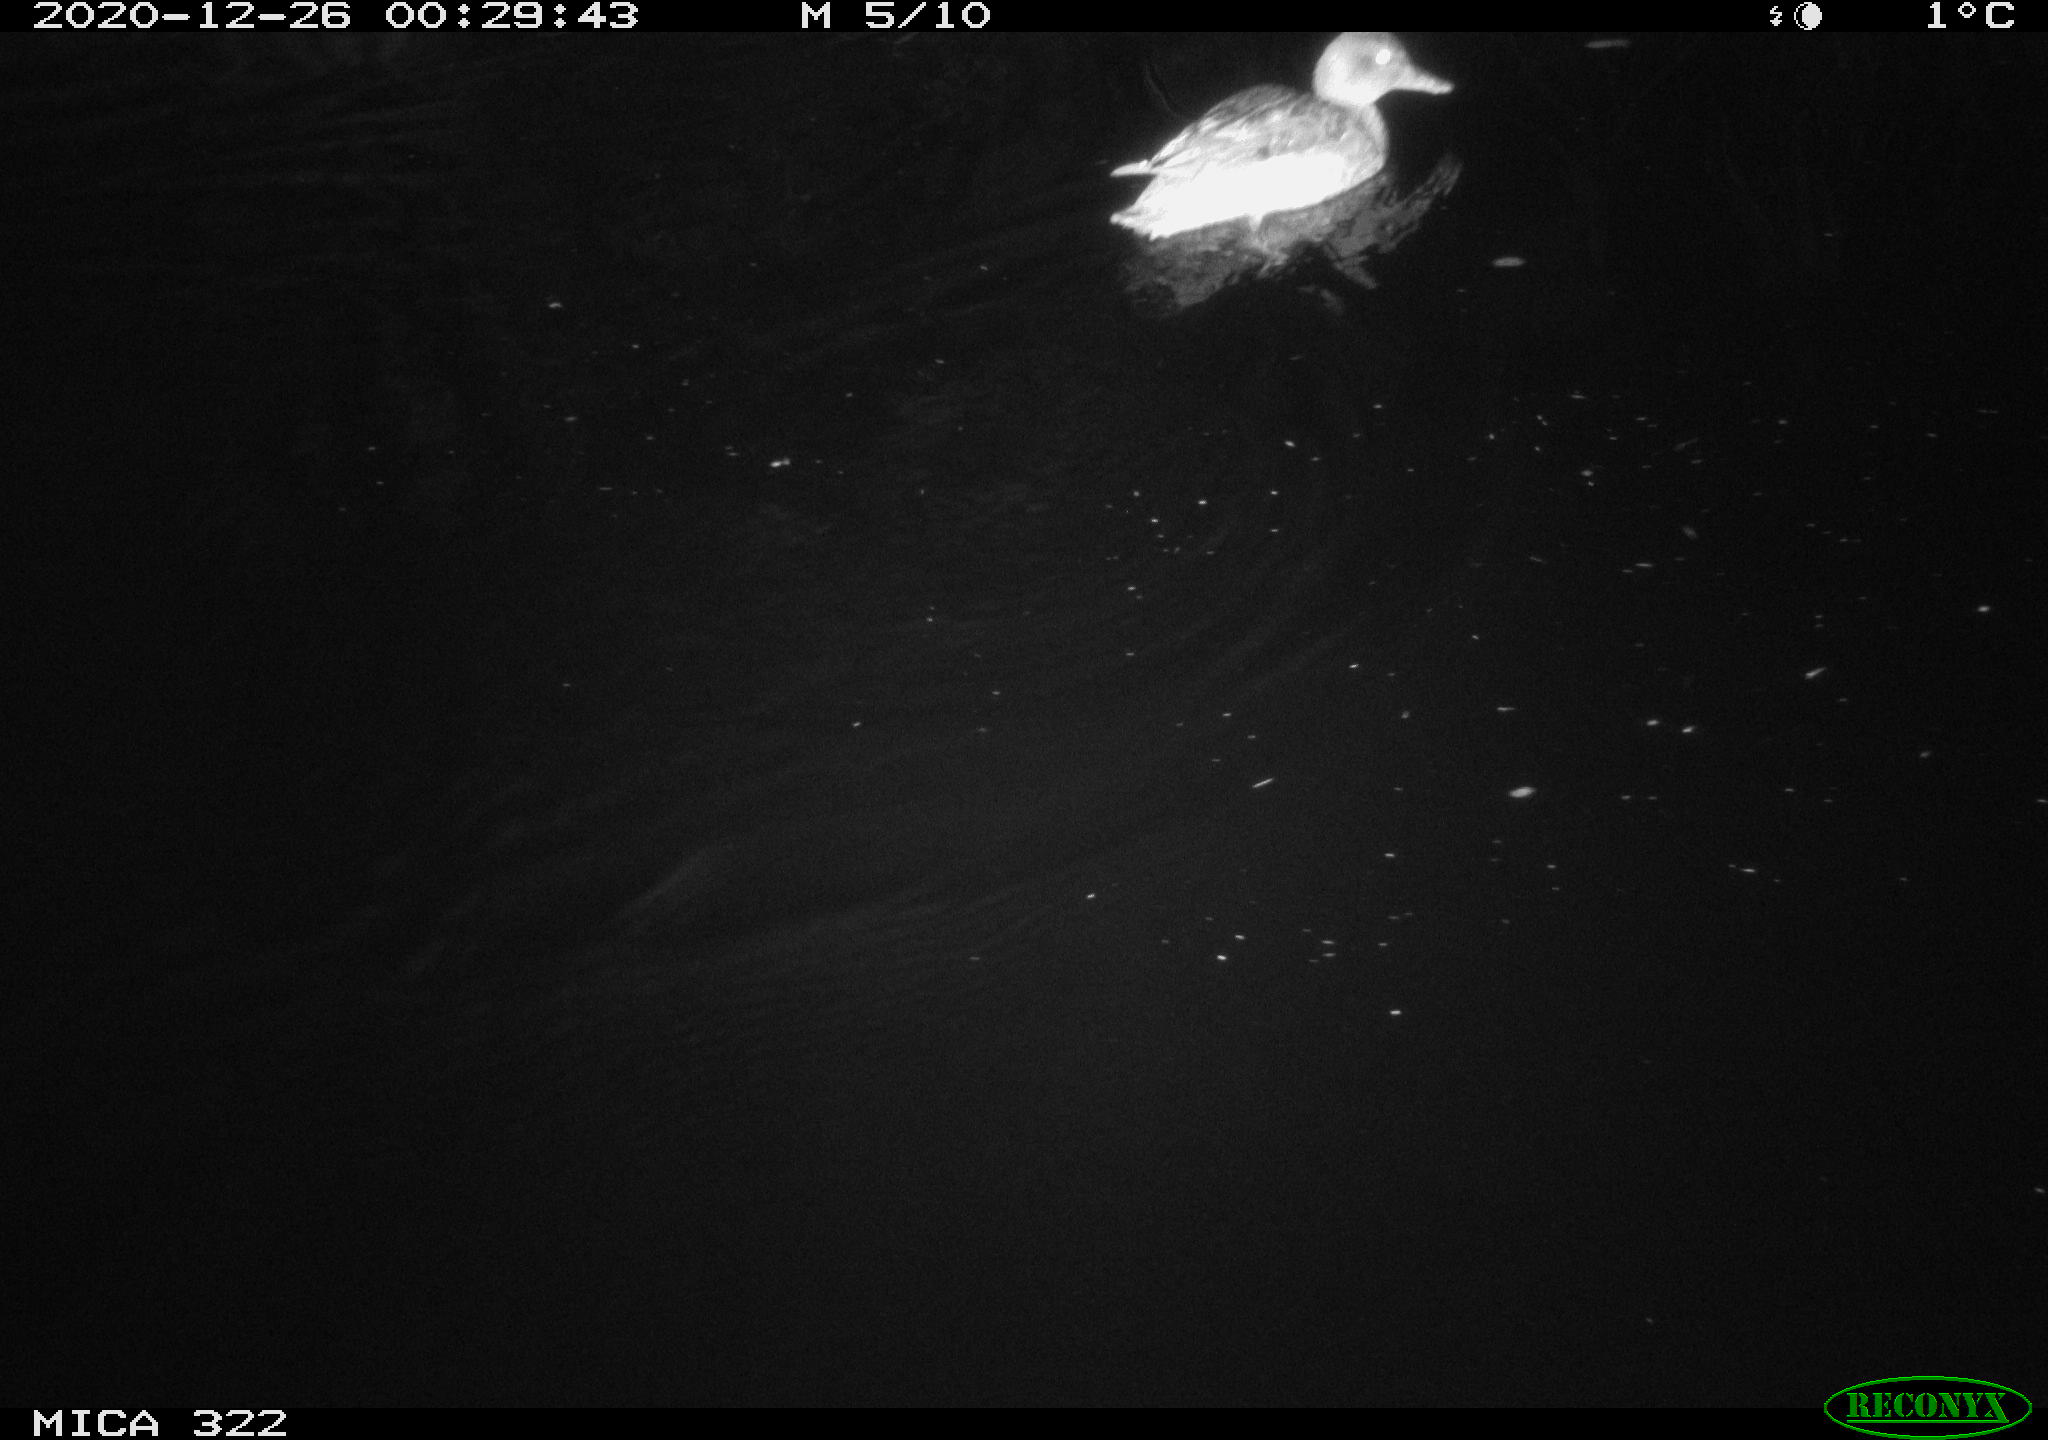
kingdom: Animalia
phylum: Chordata
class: Aves
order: Anseriformes
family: Anatidae
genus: Mareca
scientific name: Mareca strepera
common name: Gadwall
